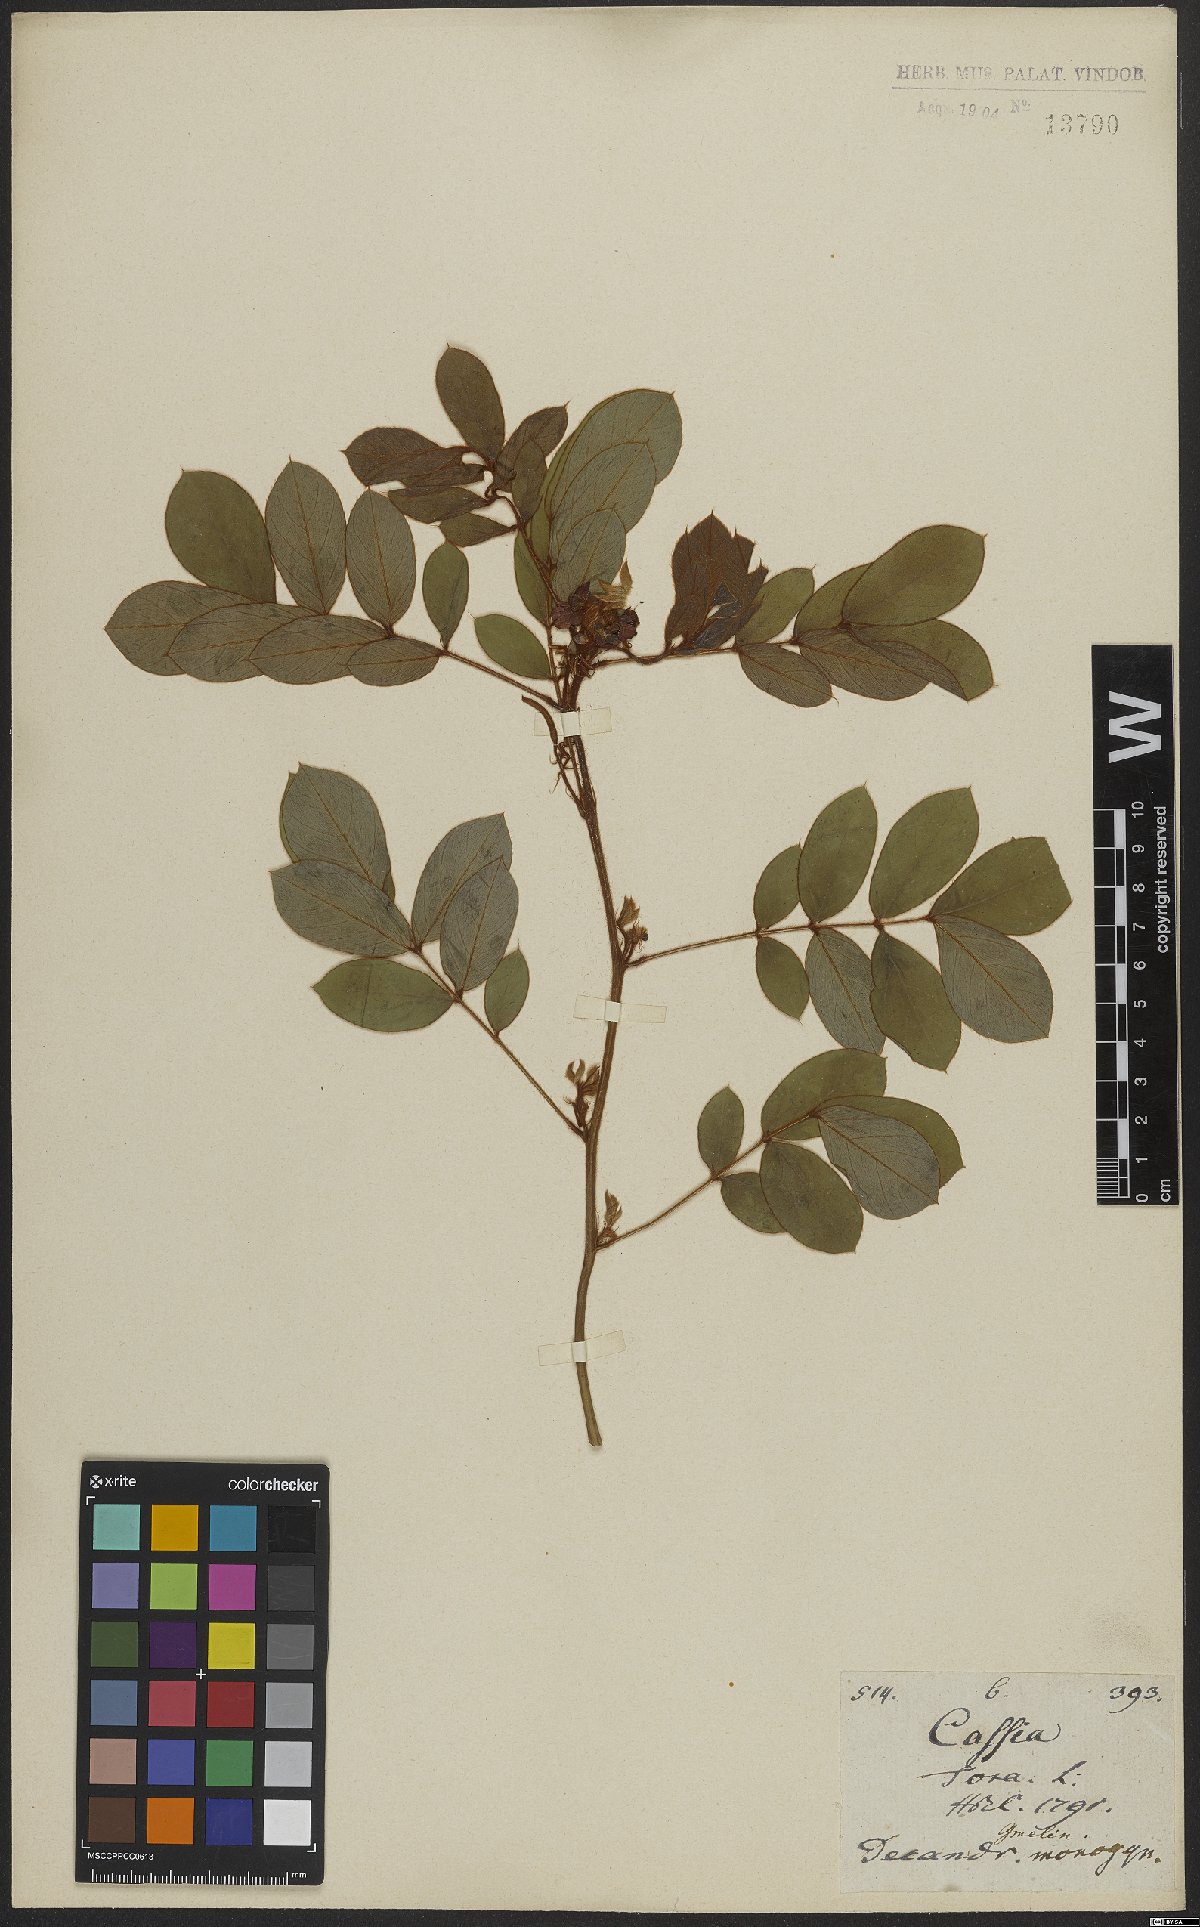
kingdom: Plantae
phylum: Tracheophyta
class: Magnoliopsida
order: Fabales
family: Fabaceae
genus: Senna
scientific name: Senna tora
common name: Sickle senna
